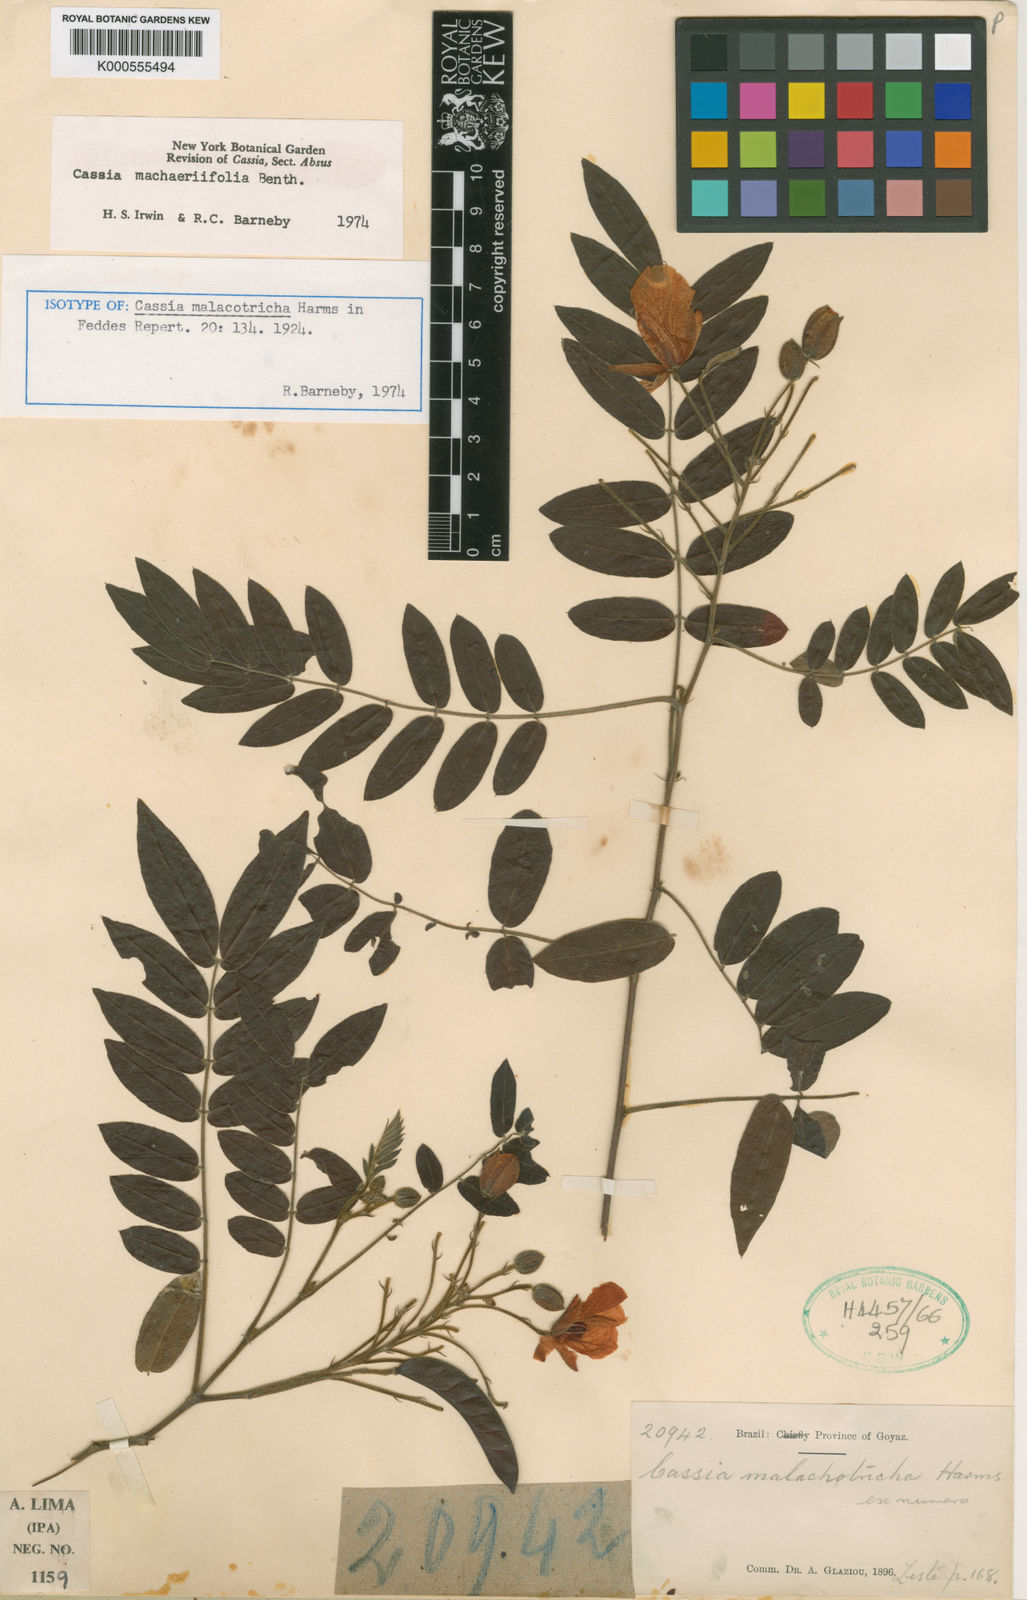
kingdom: Plantae
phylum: Tracheophyta
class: Magnoliopsida
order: Fabales
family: Fabaceae
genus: Chamaecrista
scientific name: Chamaecrista machaeriifolia
